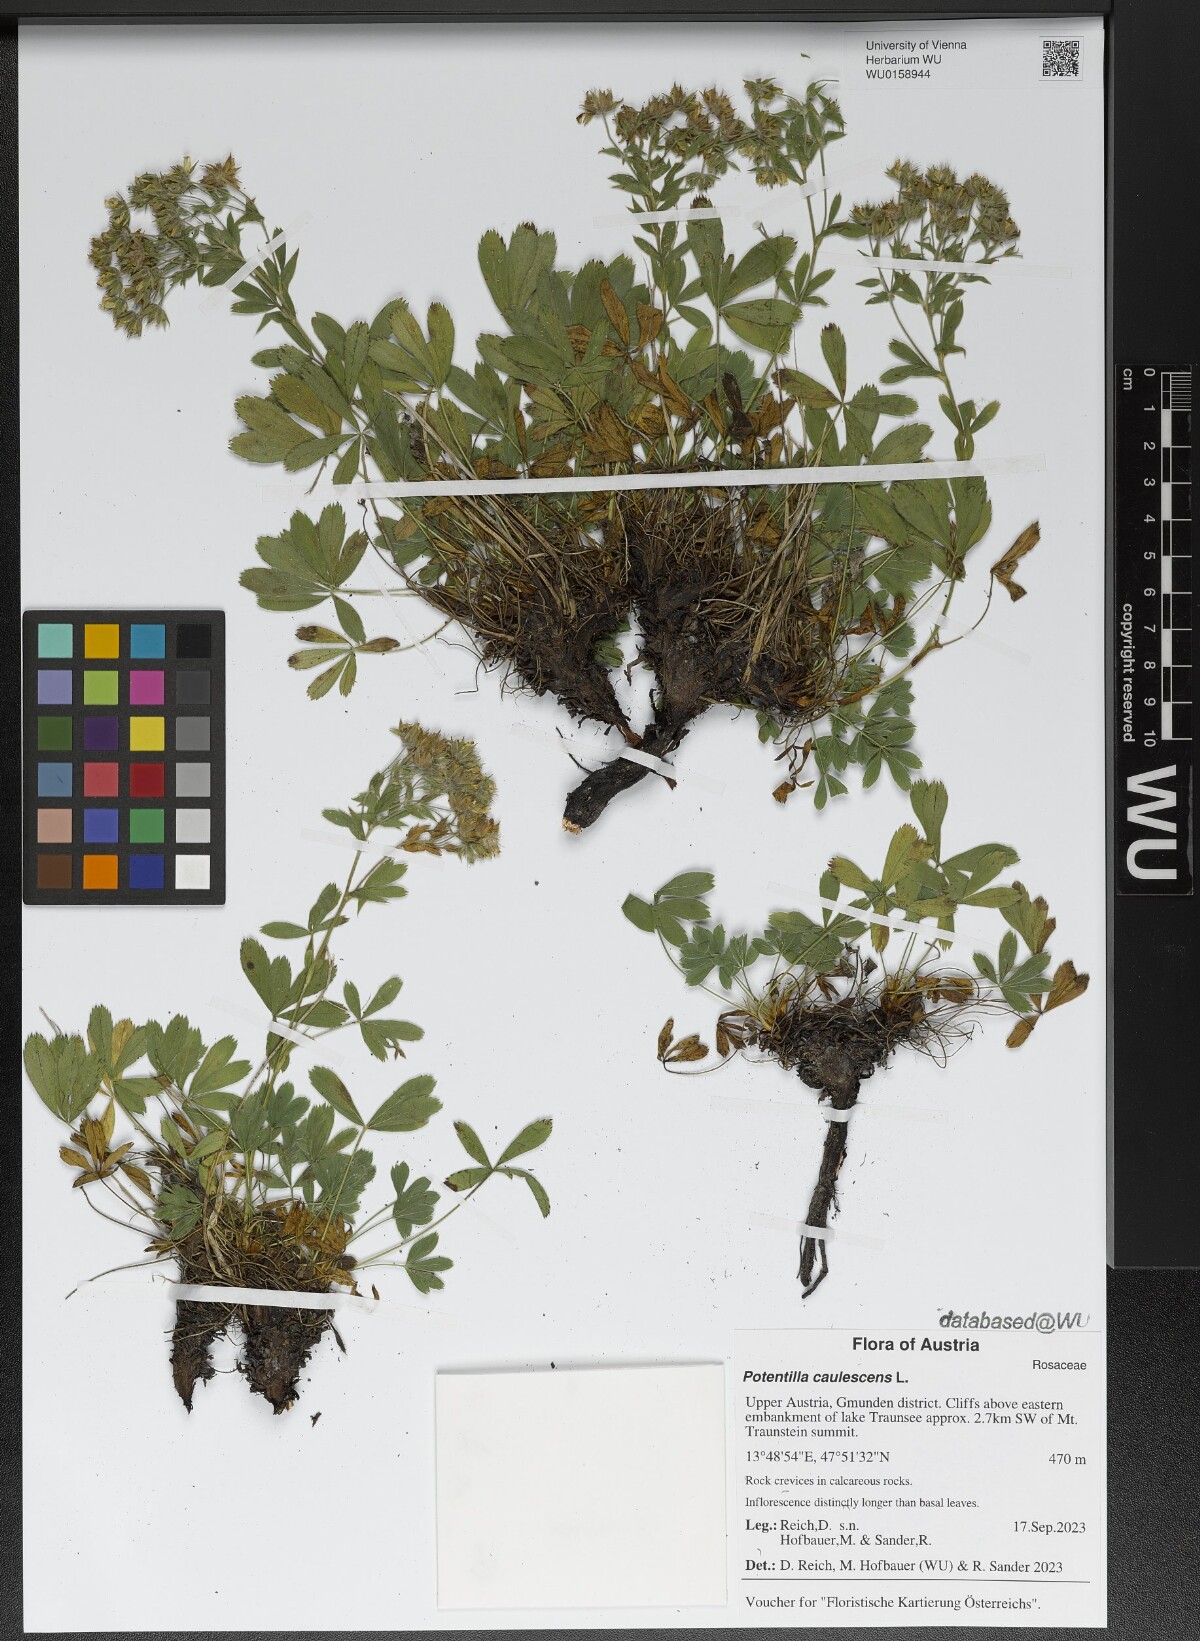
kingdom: Plantae
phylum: Tracheophyta
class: Magnoliopsida
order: Rosales
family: Rosaceae
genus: Potentilla
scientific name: Potentilla caulescens
